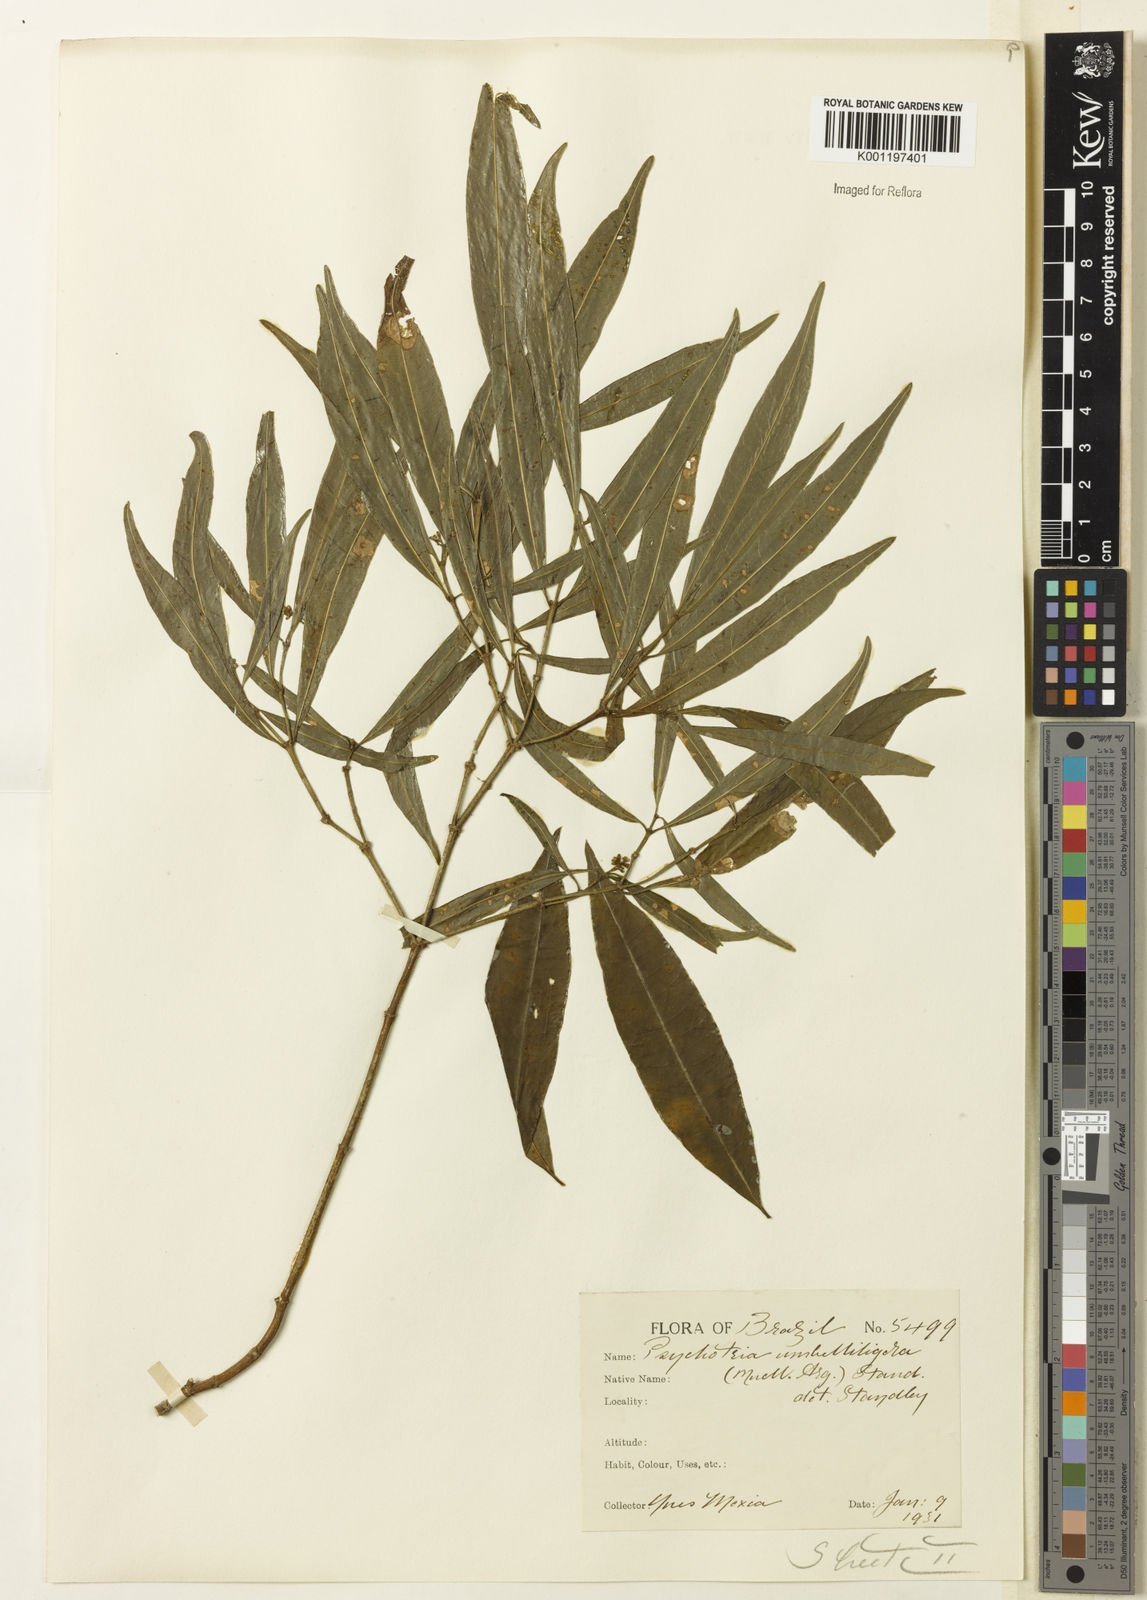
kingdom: Plantae
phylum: Tracheophyta
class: Magnoliopsida
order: Gentianales
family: Rubiaceae
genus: Psychotria
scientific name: Psychotria
